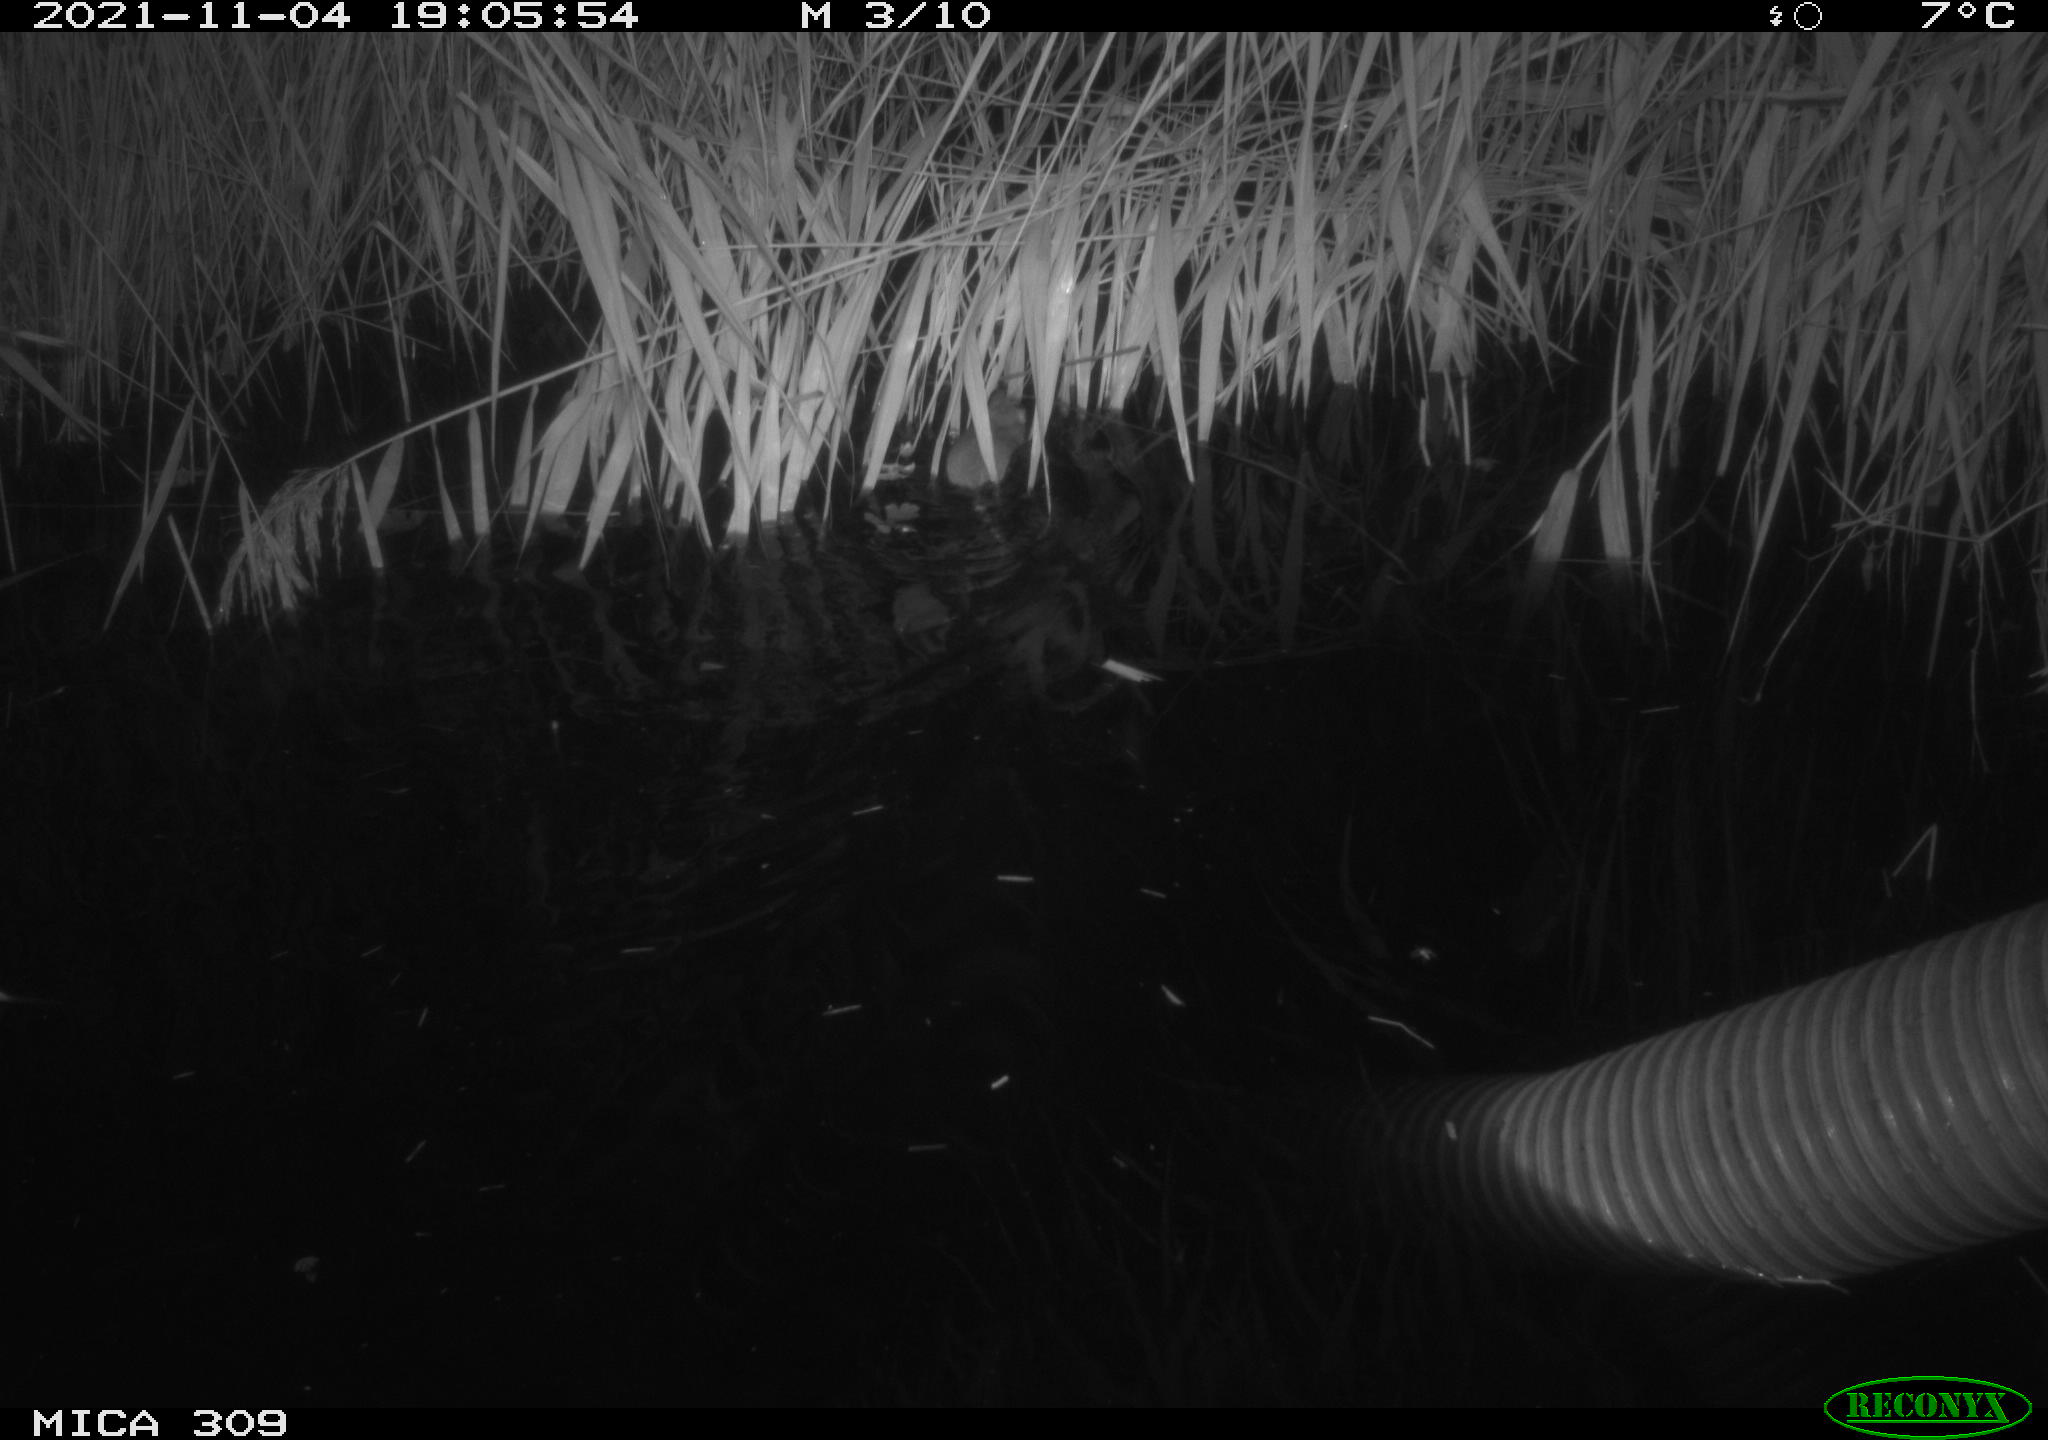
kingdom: Animalia
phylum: Chordata
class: Mammalia
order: Rodentia
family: Muridae
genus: Rattus
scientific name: Rattus norvegicus
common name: Brown rat
